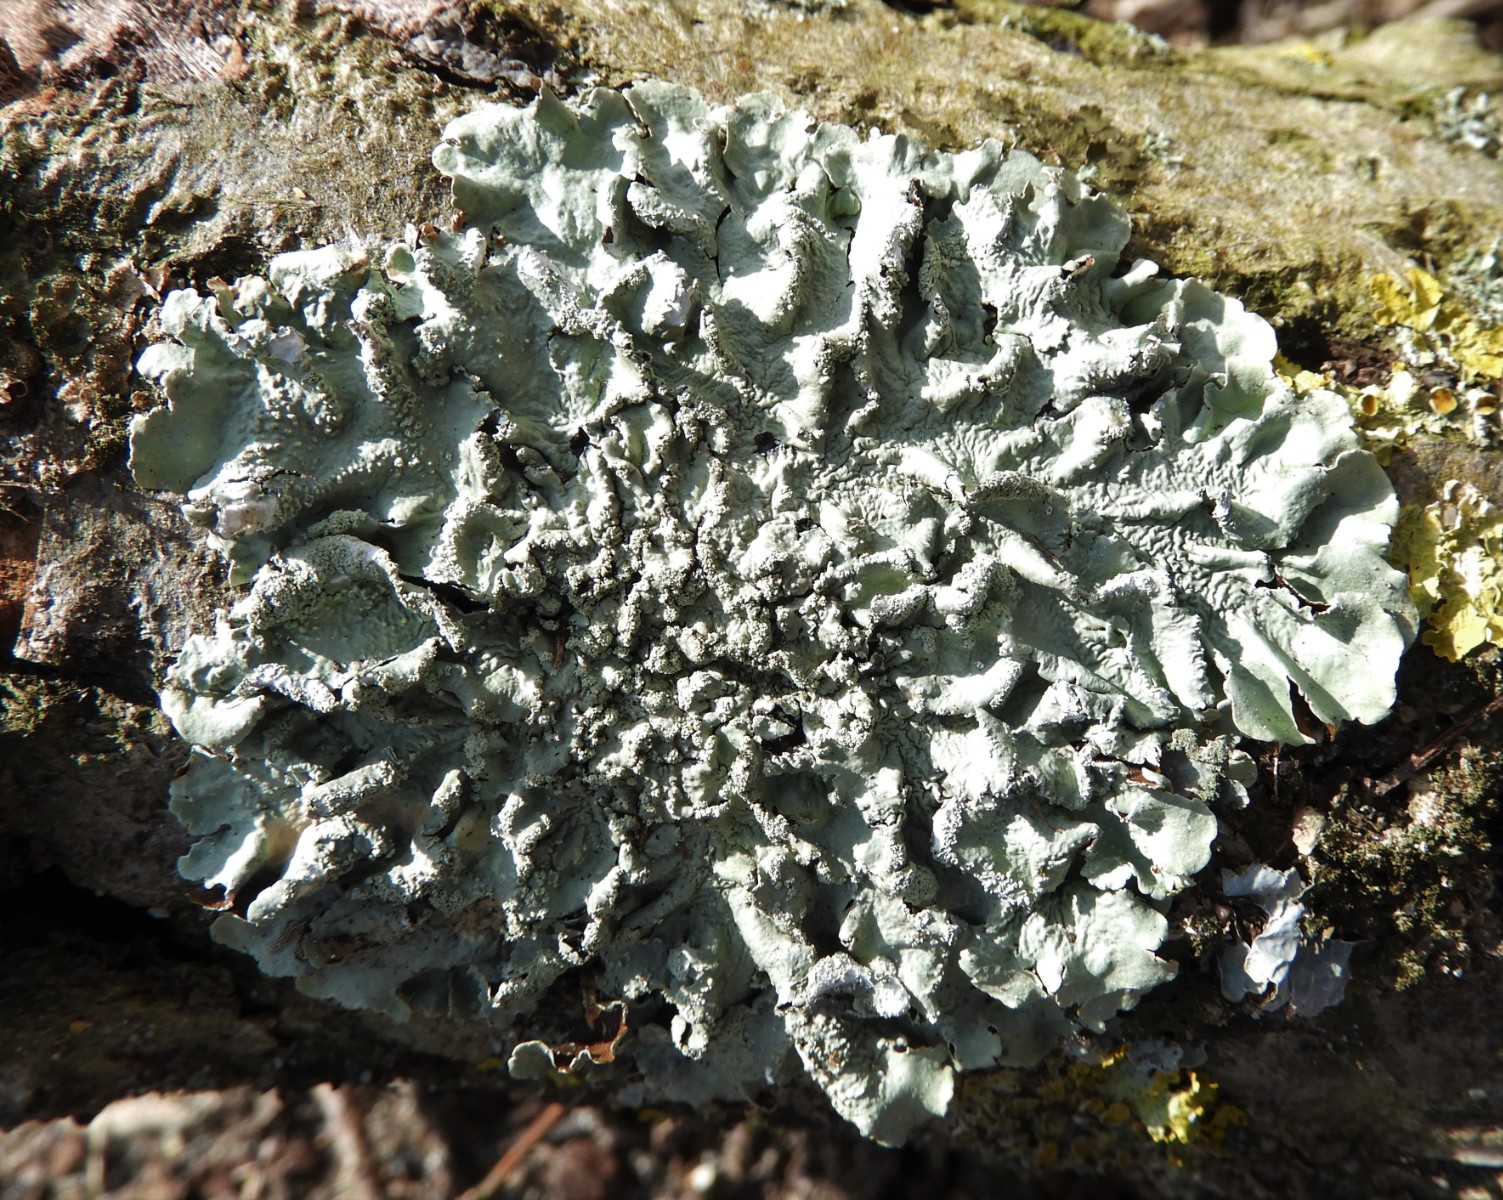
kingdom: Fungi
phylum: Ascomycota
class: Lecanoromycetes
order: Lecanorales
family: Parmeliaceae
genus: Flavoparmelia
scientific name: Flavoparmelia caperata
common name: gulgrøn skållav
